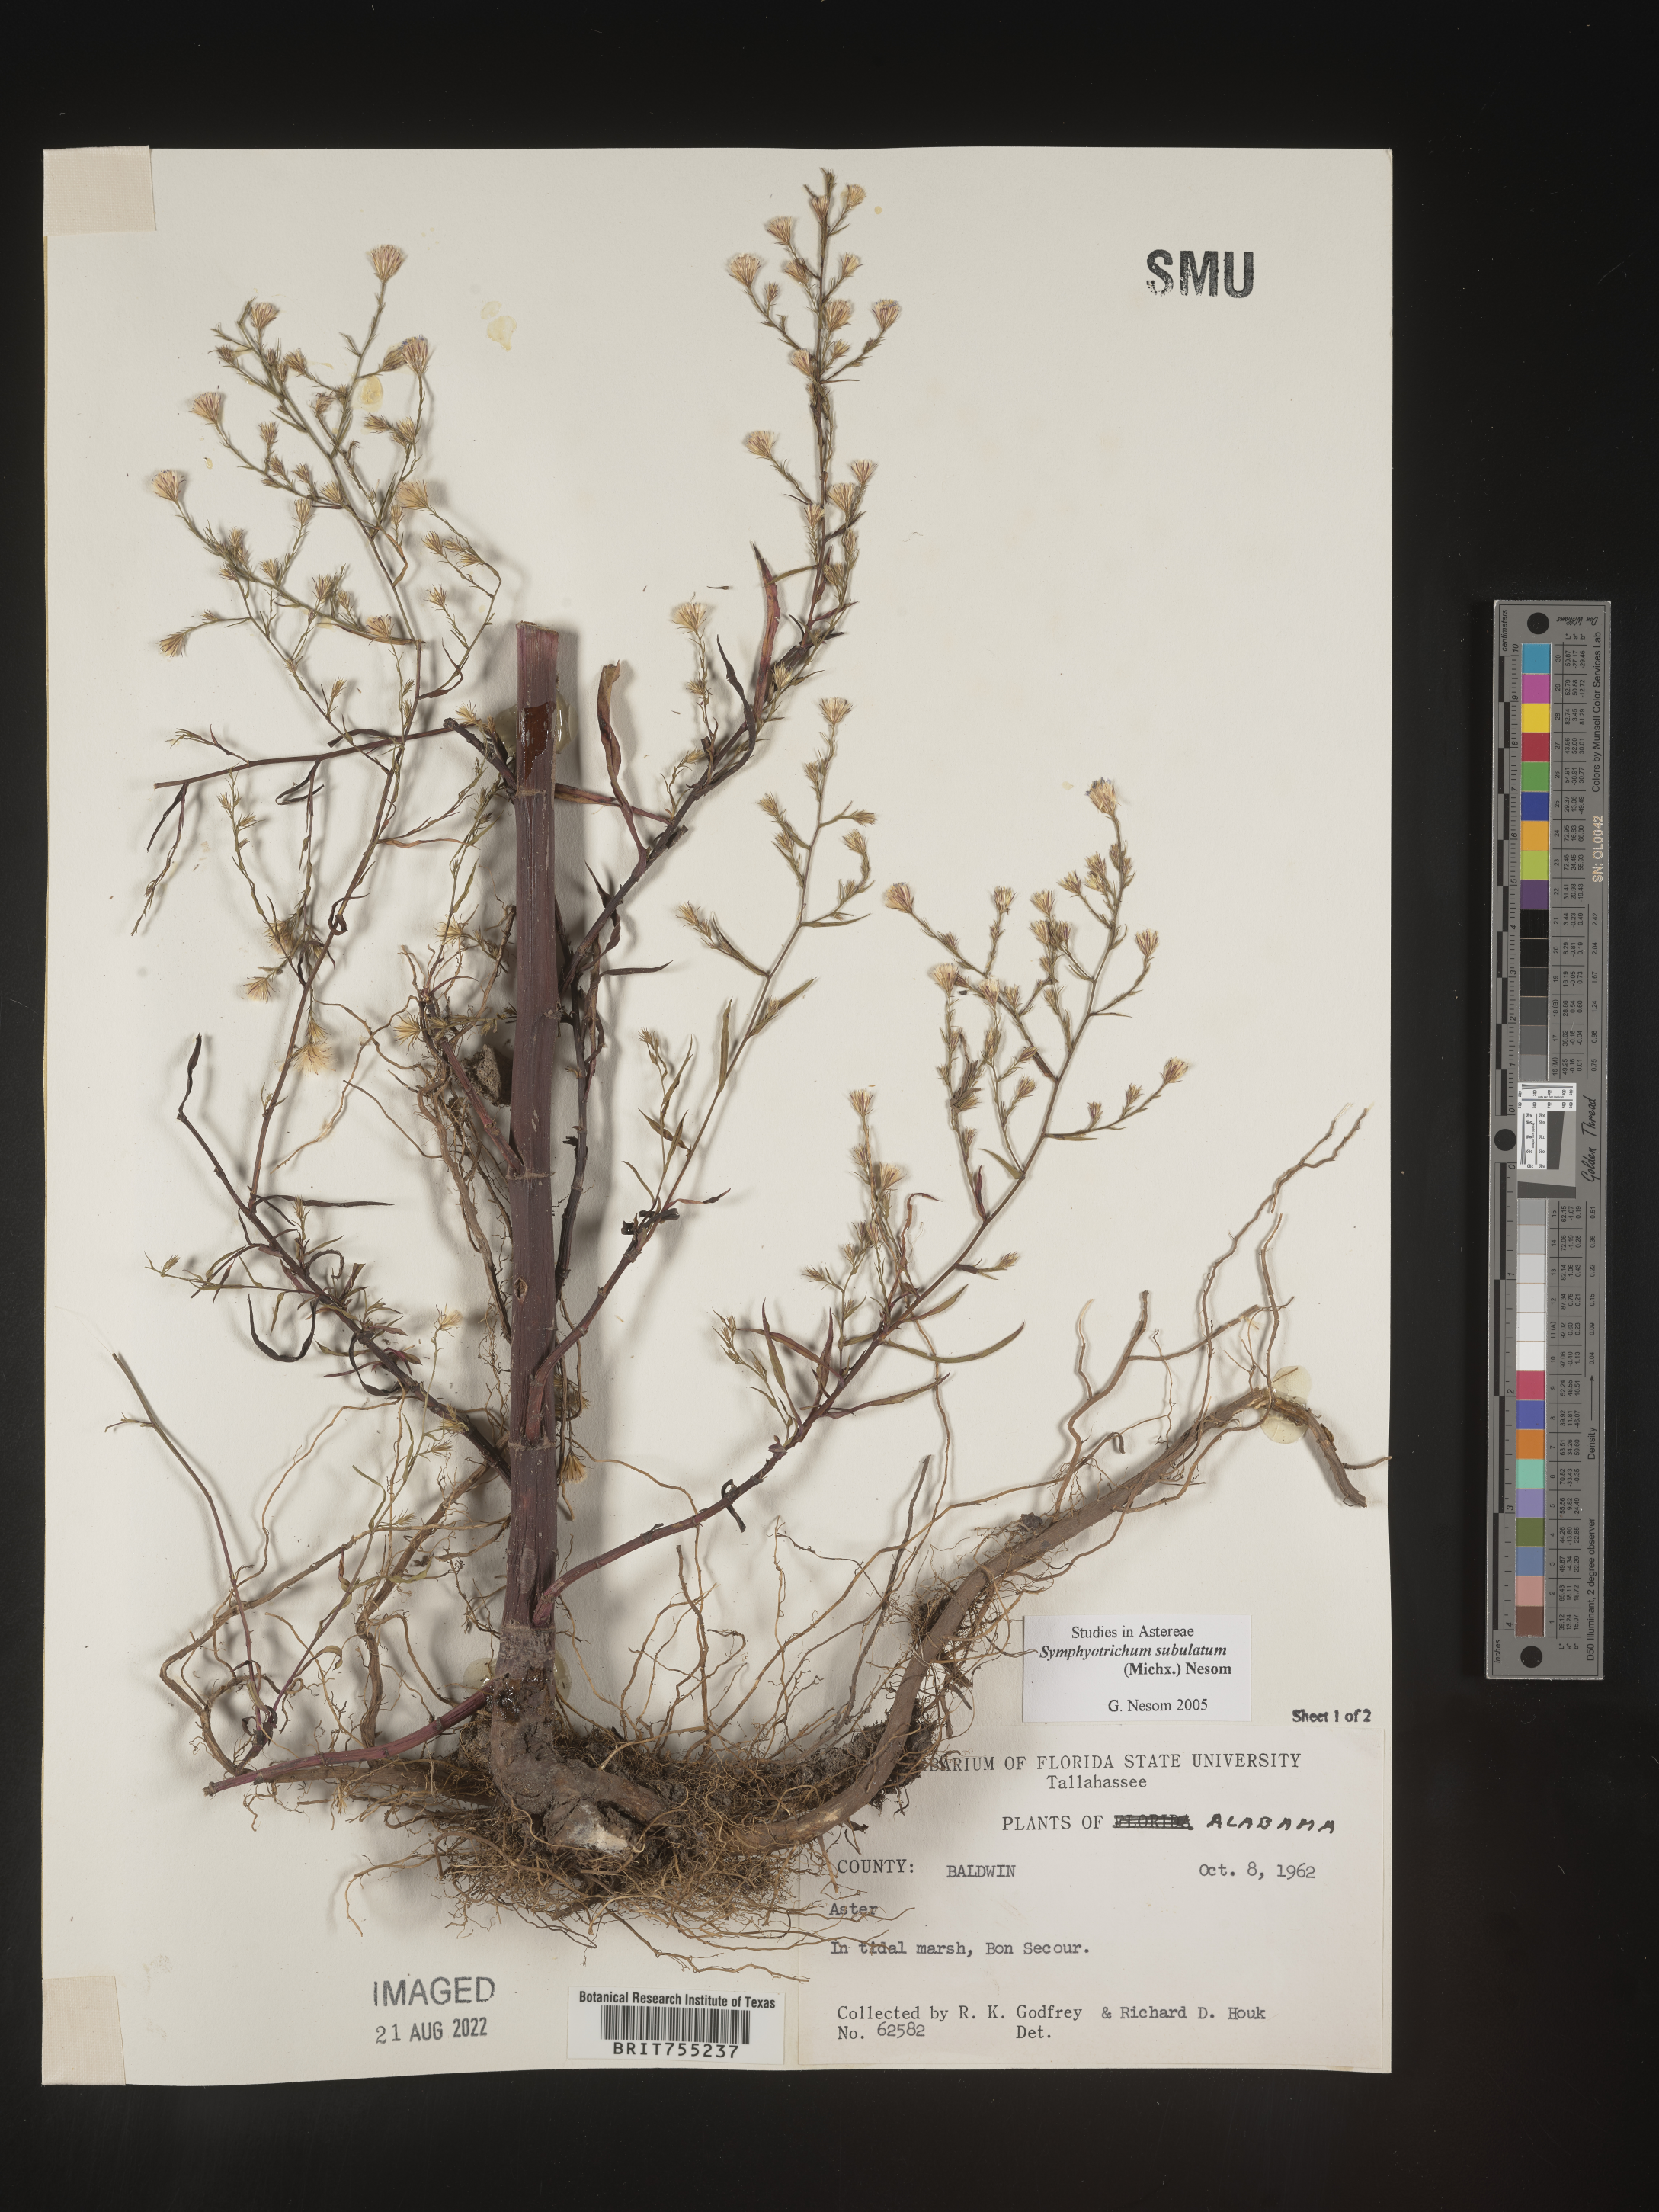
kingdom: Plantae
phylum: Tracheophyta
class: Magnoliopsida
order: Asterales
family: Asteraceae
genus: Symphyotrichum
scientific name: Symphyotrichum subulatum
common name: Annual saltmarsh aster
